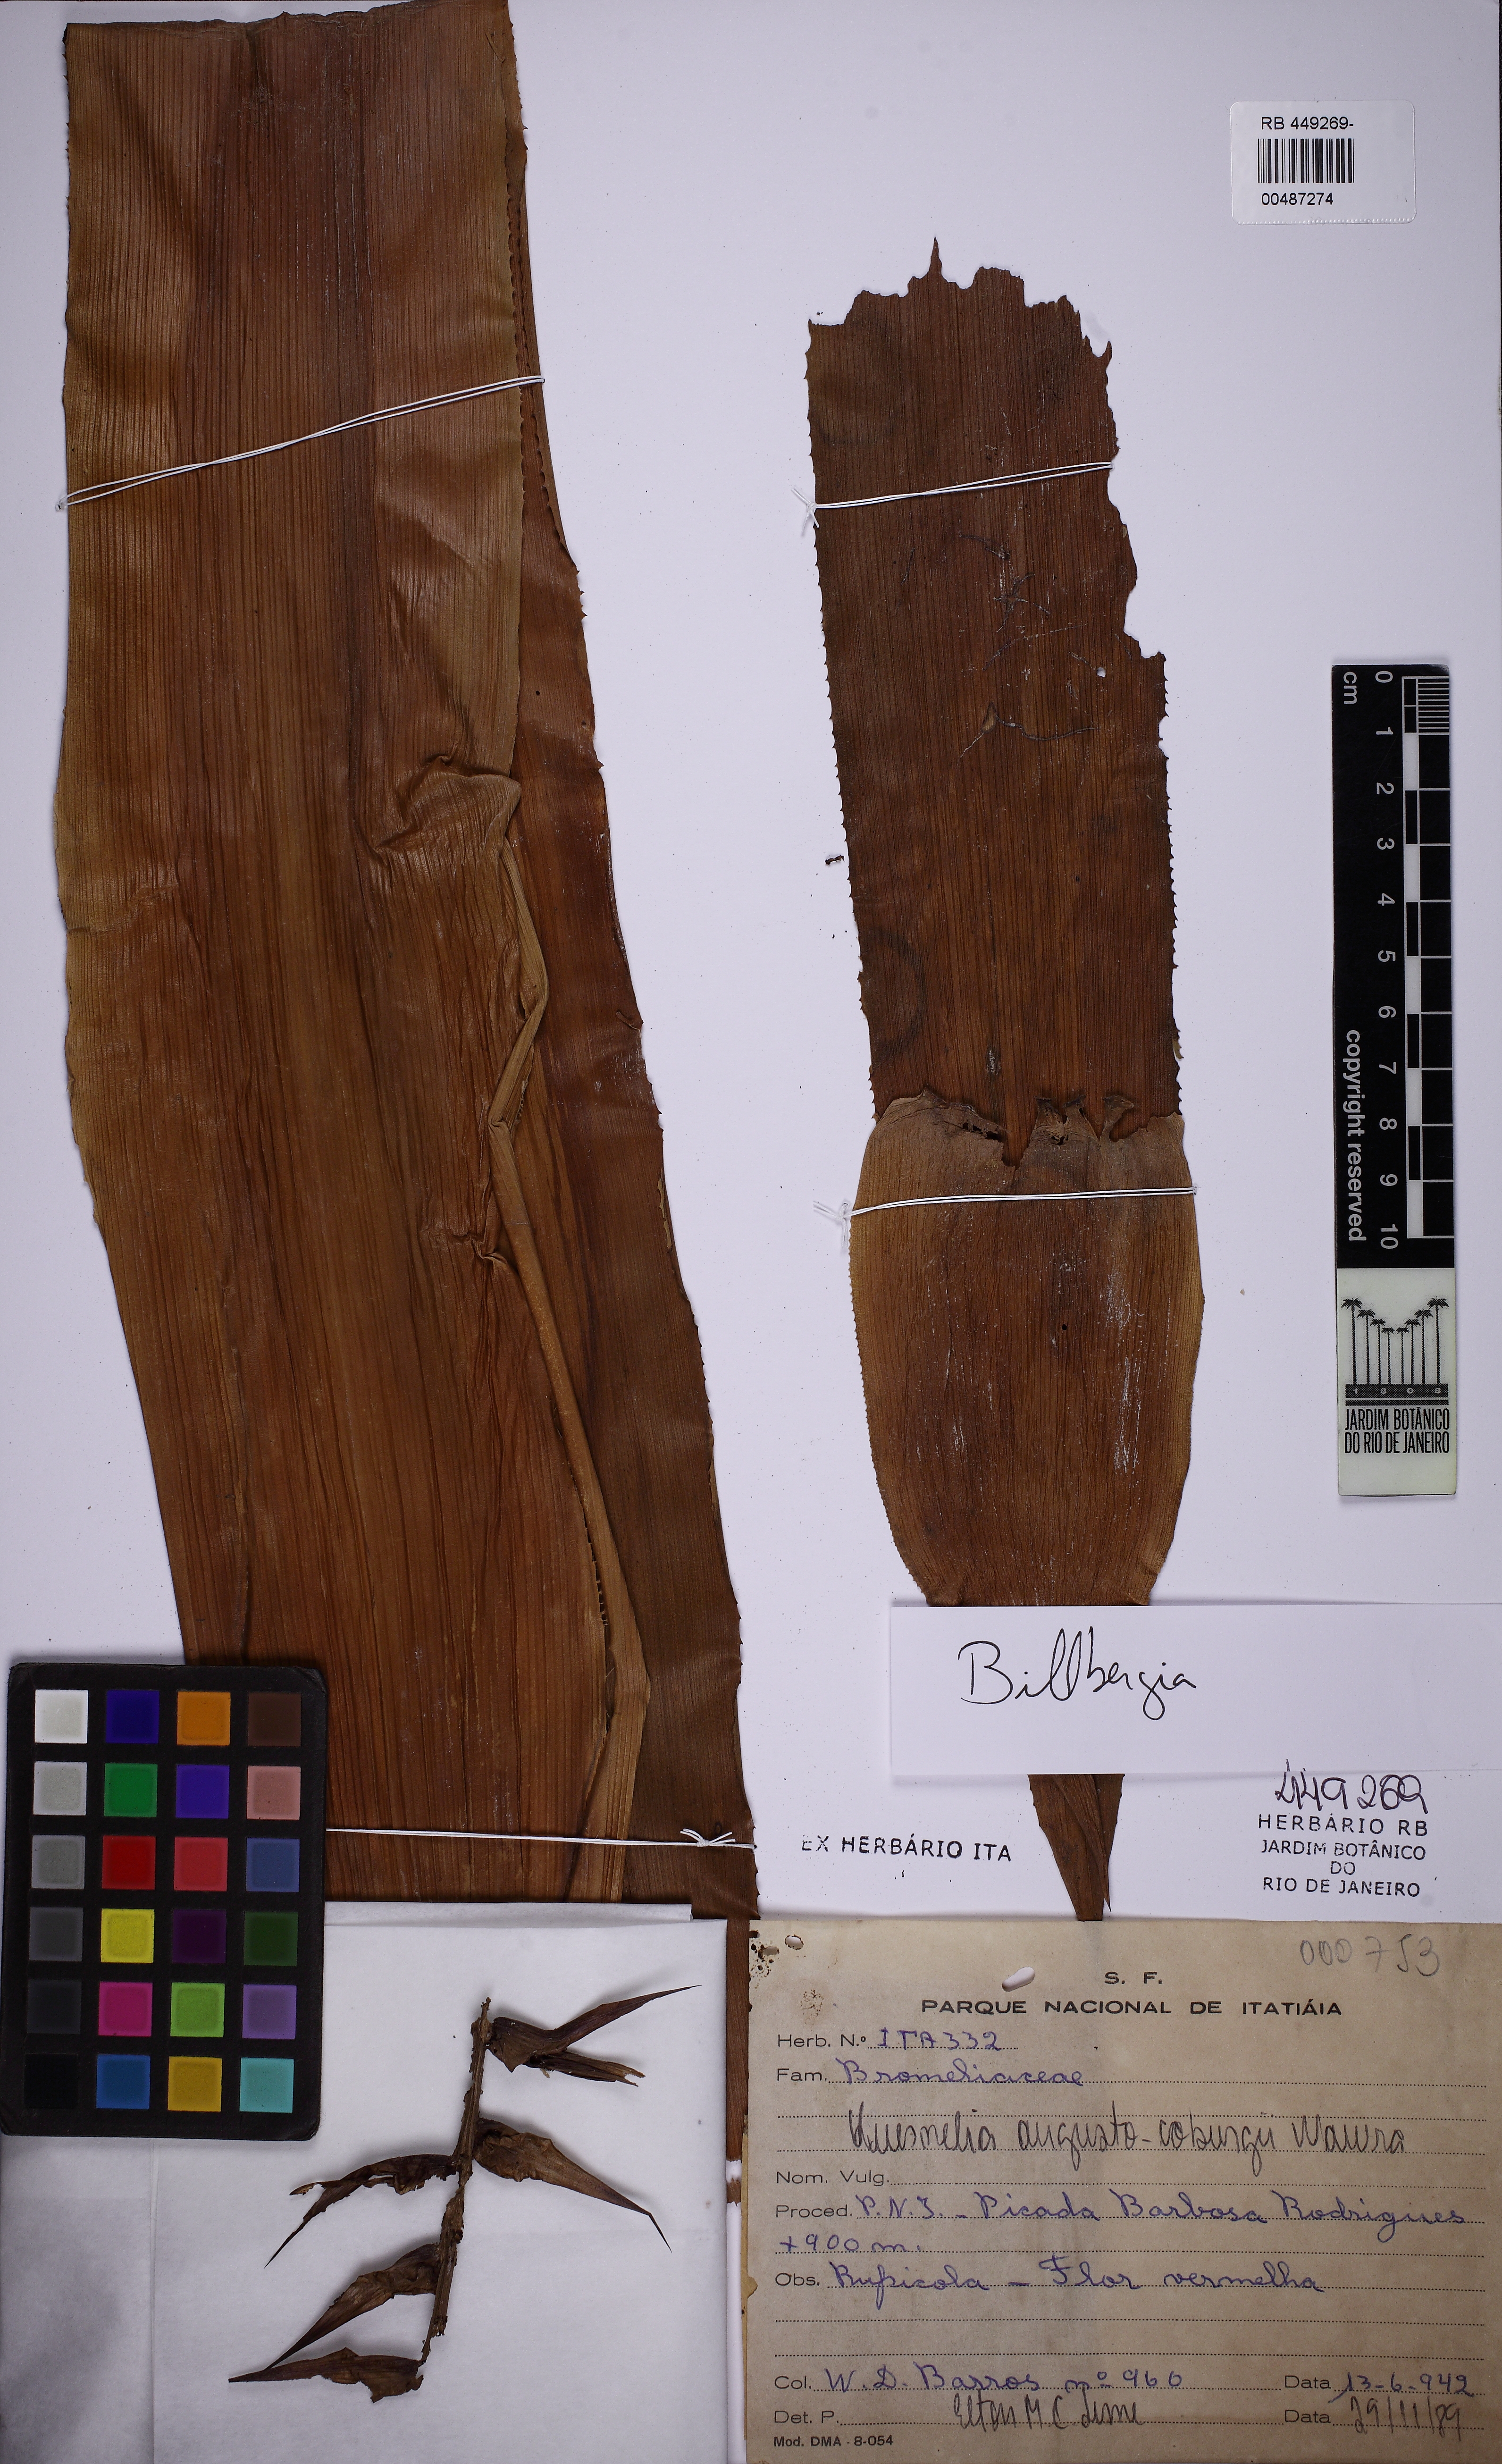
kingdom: Plantae
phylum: Tracheophyta
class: Liliopsida
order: Poales
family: Bromeliaceae
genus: Billbergia
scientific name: Billbergia
